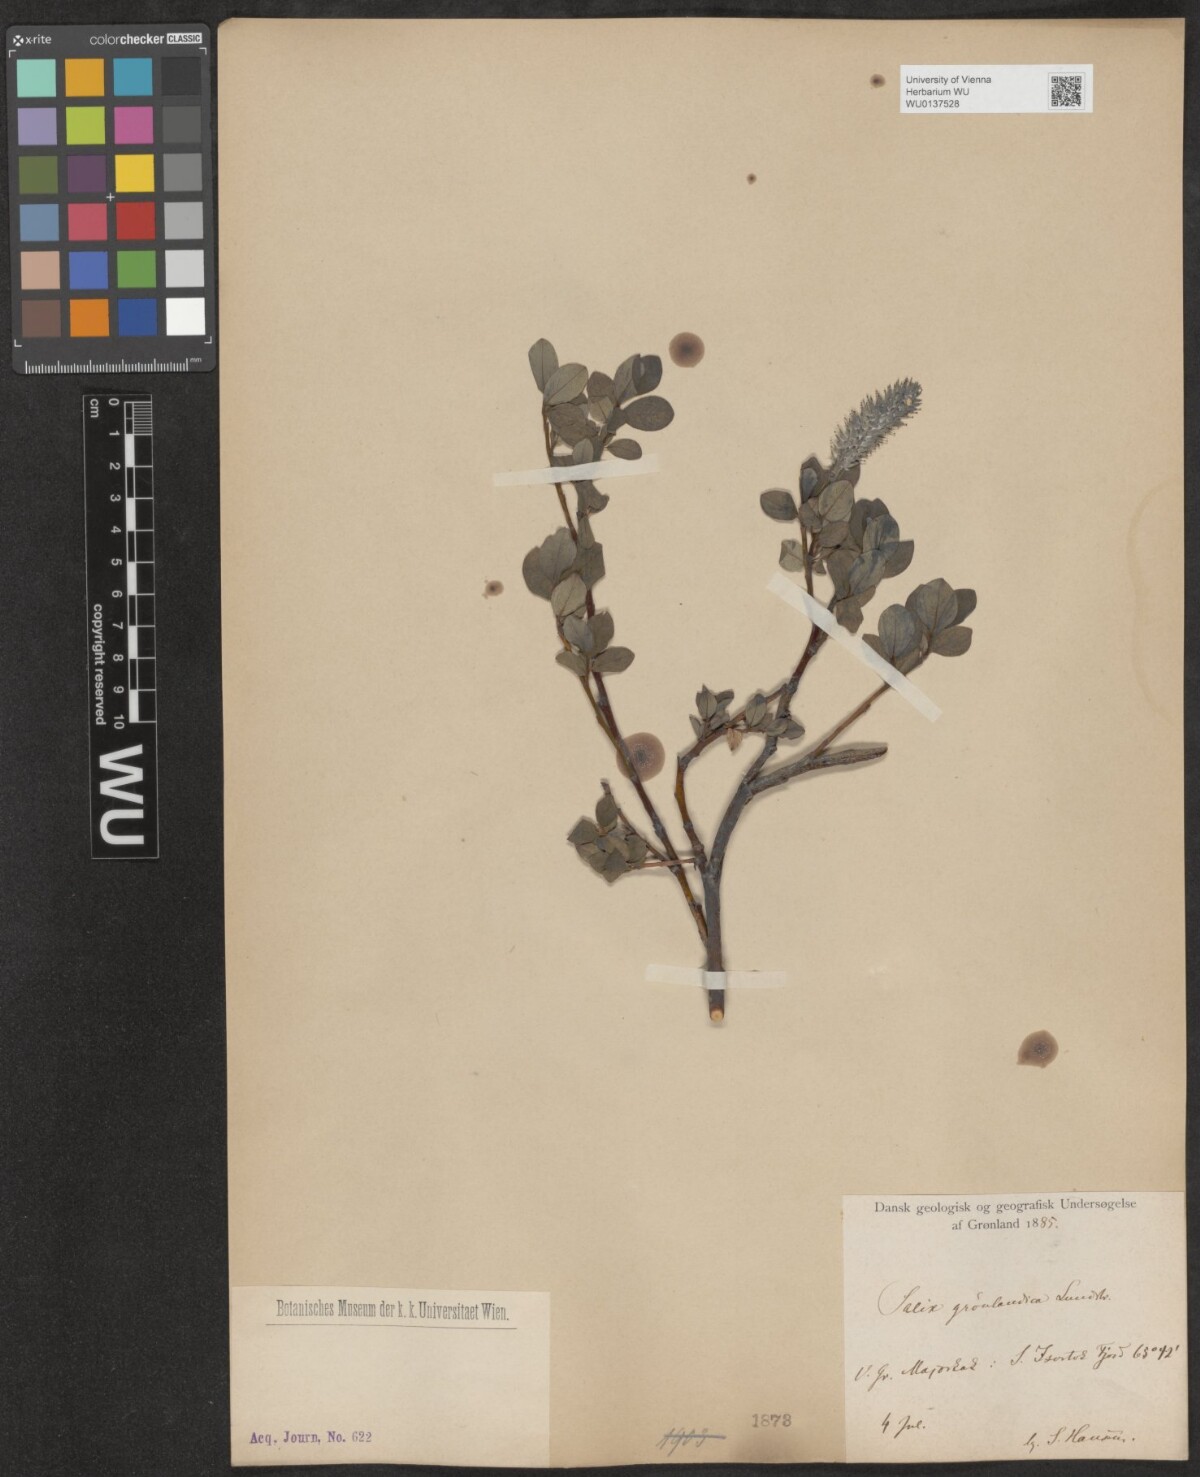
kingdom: Plantae
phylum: Tracheophyta
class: Magnoliopsida
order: Malpighiales
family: Salicaceae
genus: Salix
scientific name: Salix arctophila
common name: Greenland willow
